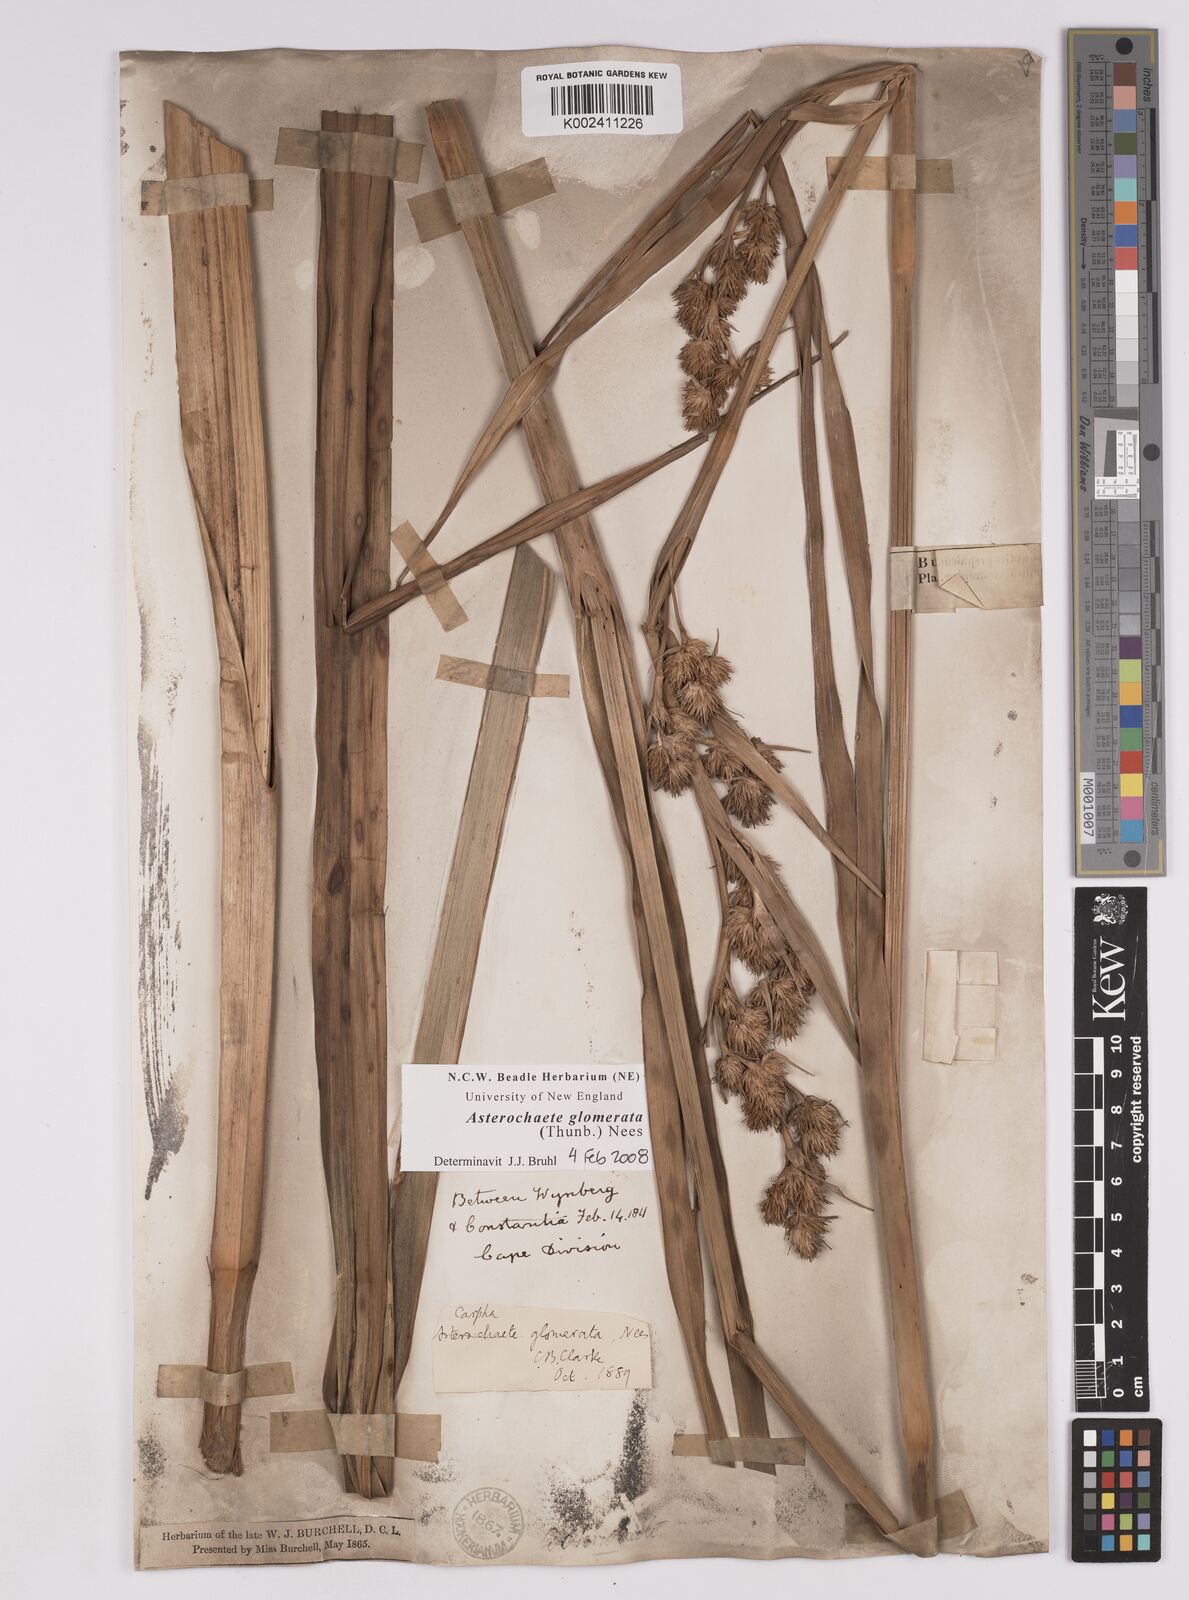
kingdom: Plantae
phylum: Tracheophyta
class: Liliopsida
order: Poales
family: Cyperaceae
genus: Carpha
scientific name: Carpha glomerata
